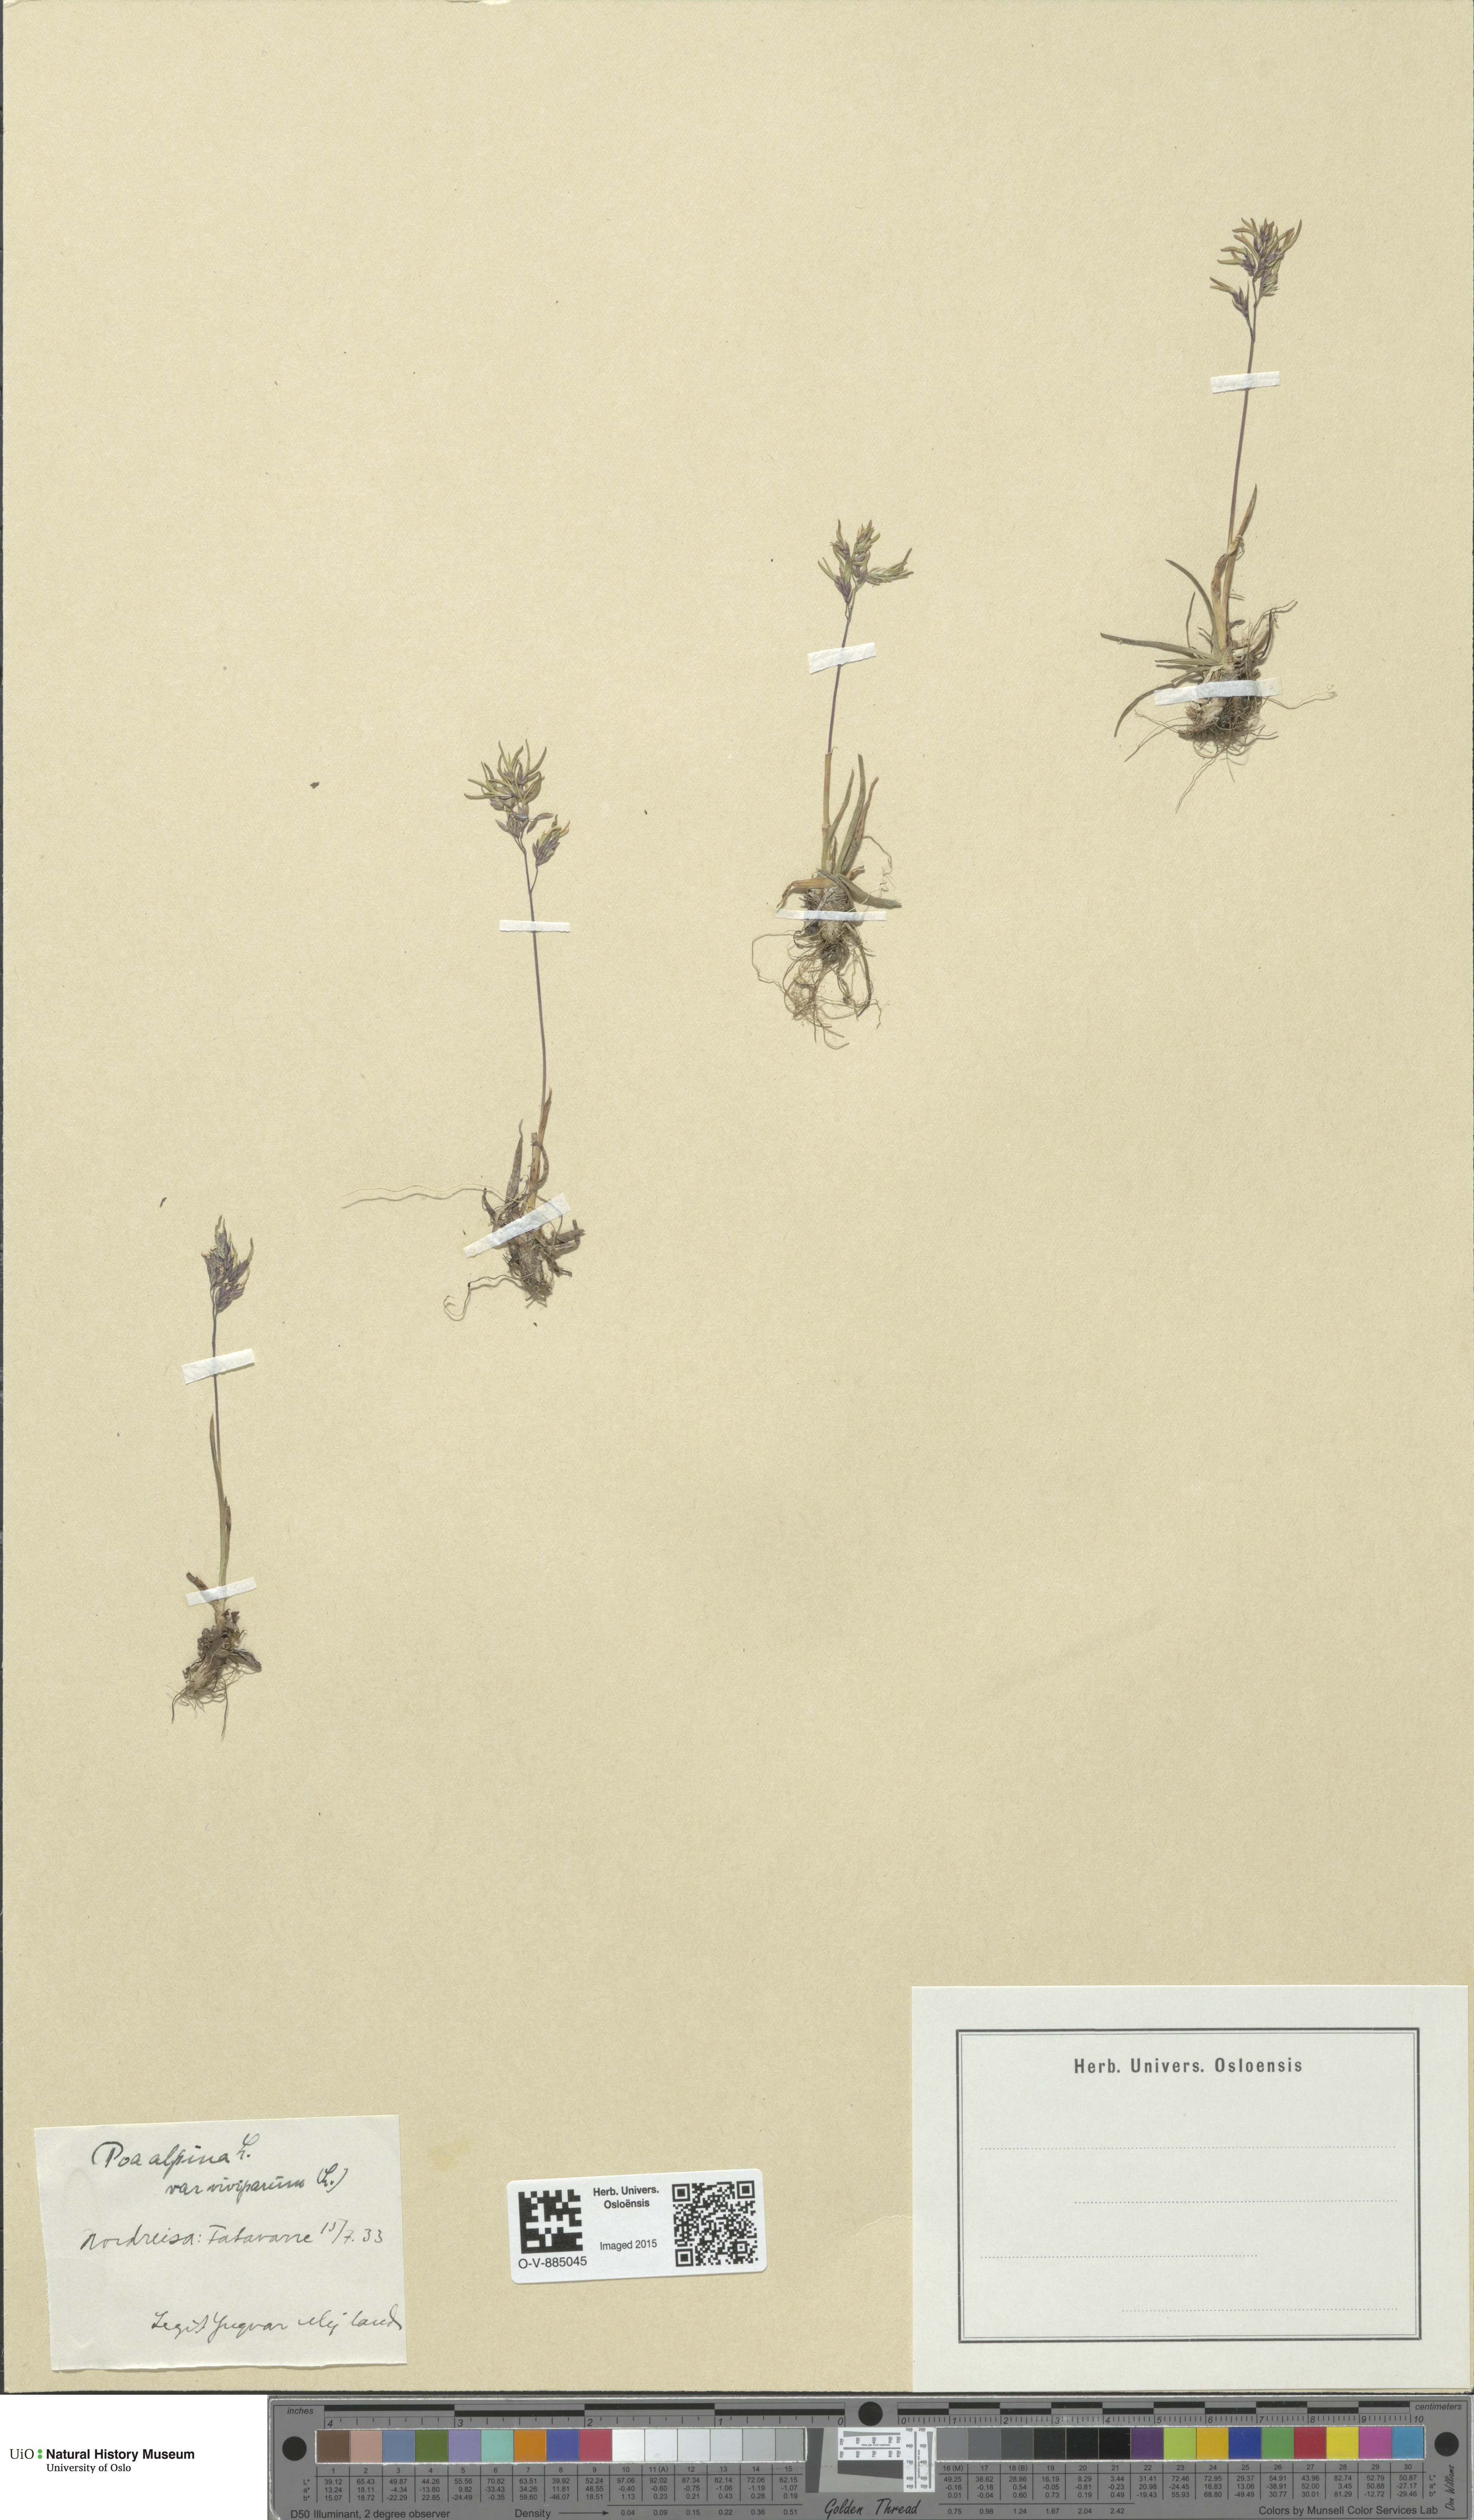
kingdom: Plantae
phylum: Tracheophyta
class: Liliopsida
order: Poales
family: Poaceae
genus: Poa
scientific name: Poa alpina
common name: Alpine bluegrass
